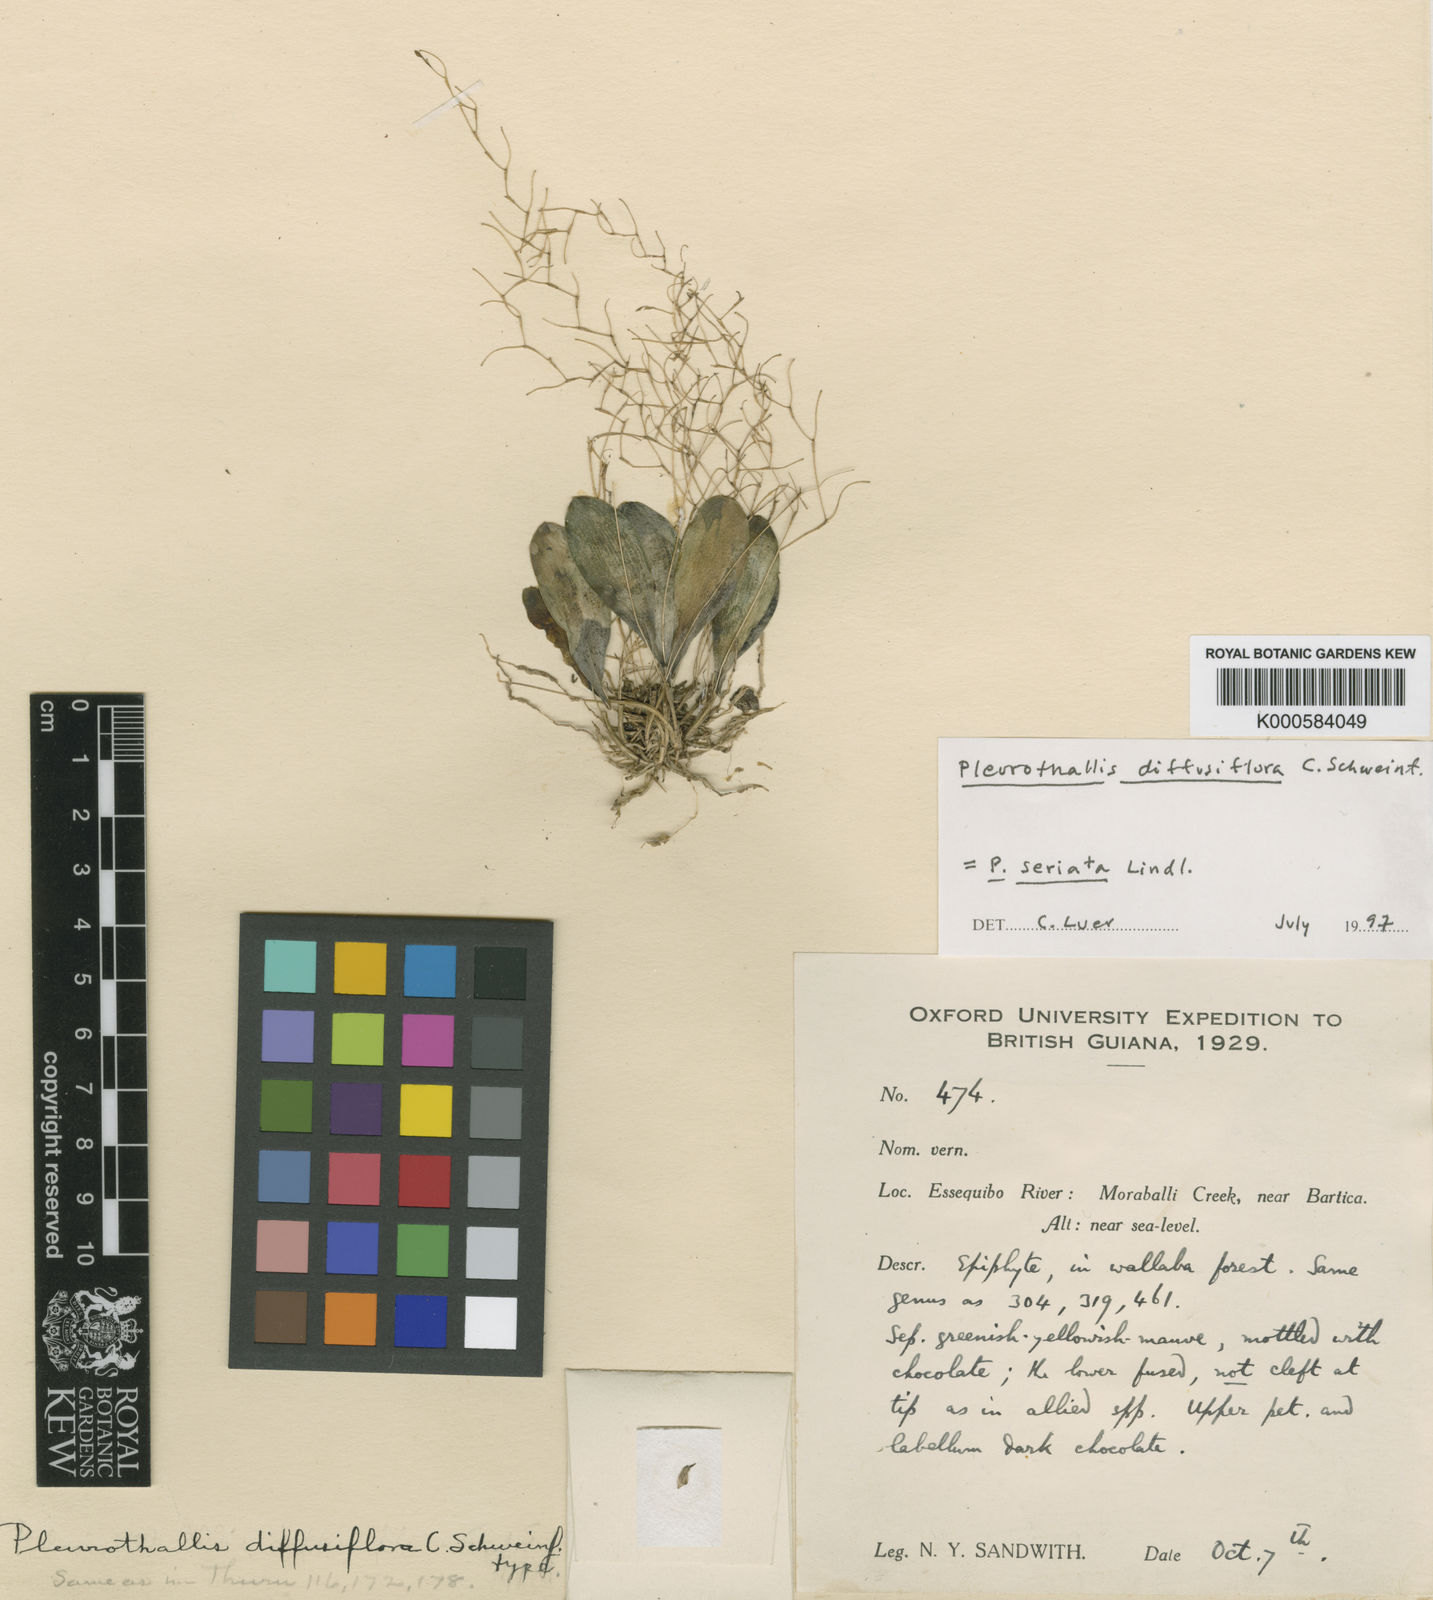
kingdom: Plantae
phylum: Tracheophyta
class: Liliopsida
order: Asparagales
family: Orchidaceae
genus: Pabstiella
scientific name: Pabstiella seriata
